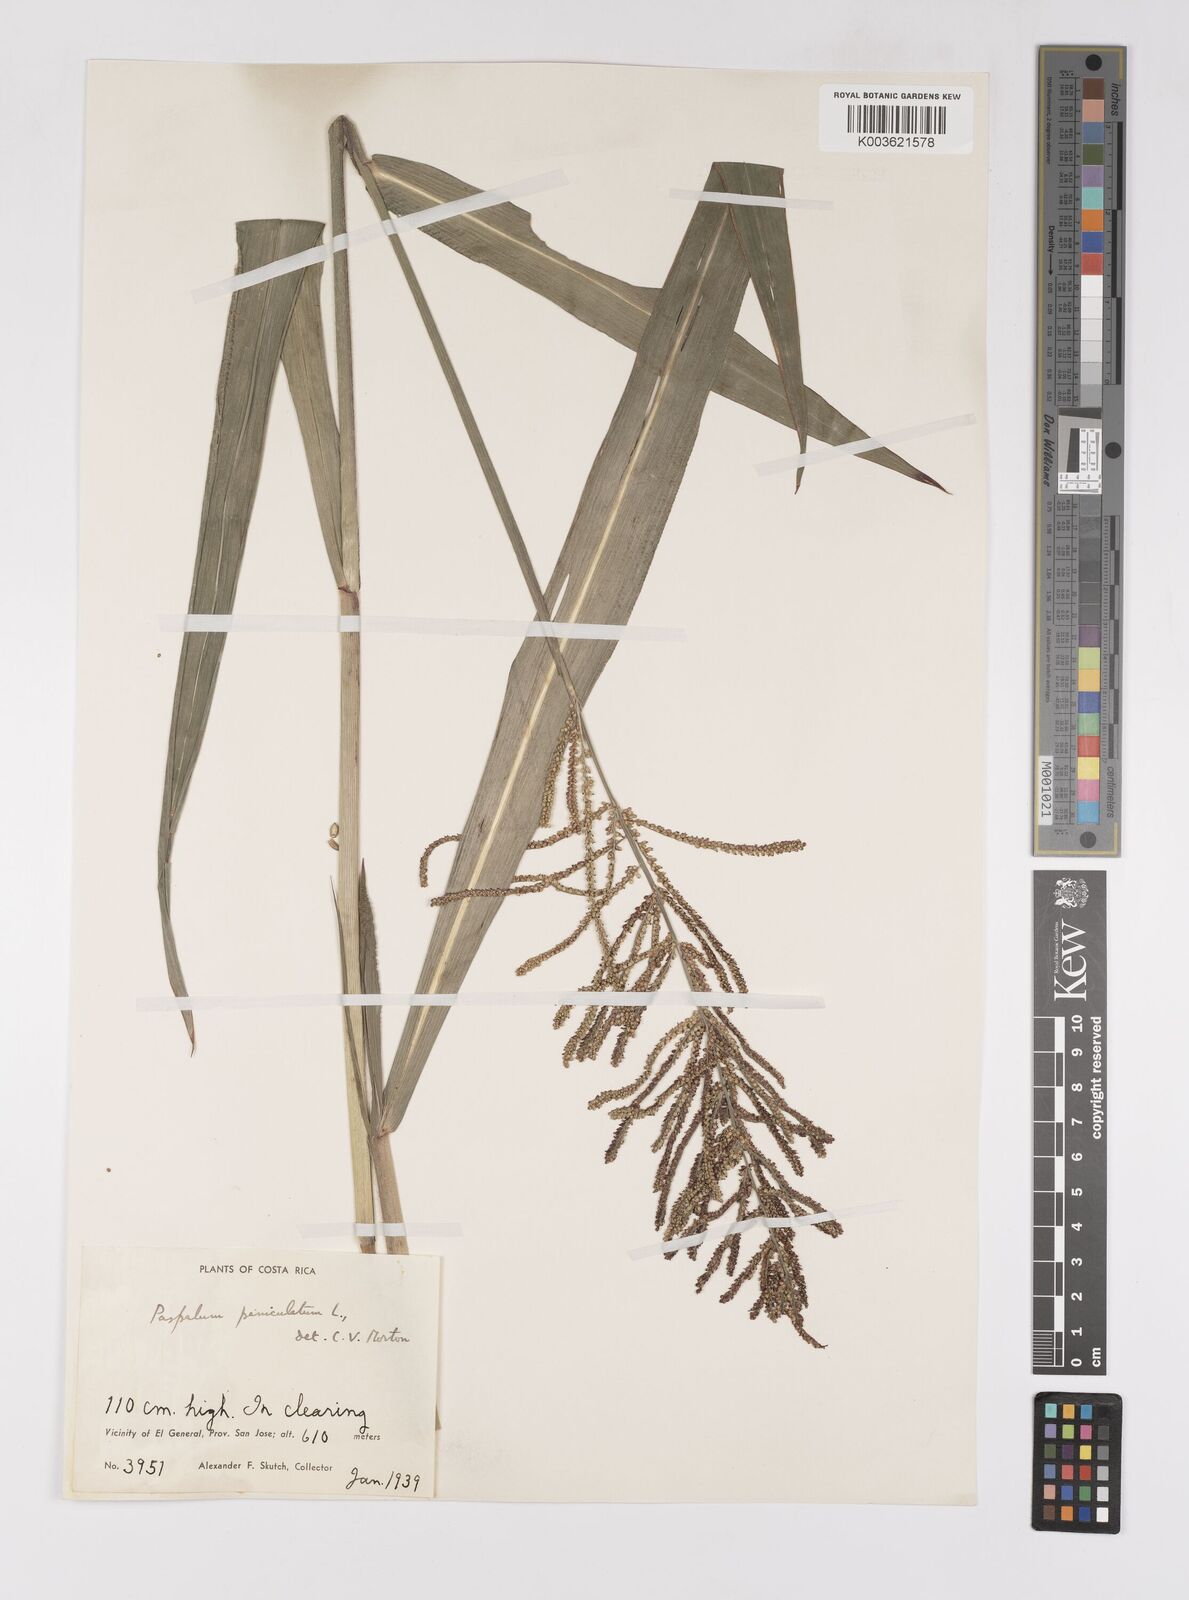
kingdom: Plantae
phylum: Tracheophyta
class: Liliopsida
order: Poales
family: Poaceae
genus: Paspalum
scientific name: Paspalum paniculatum
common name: Arrocillo
